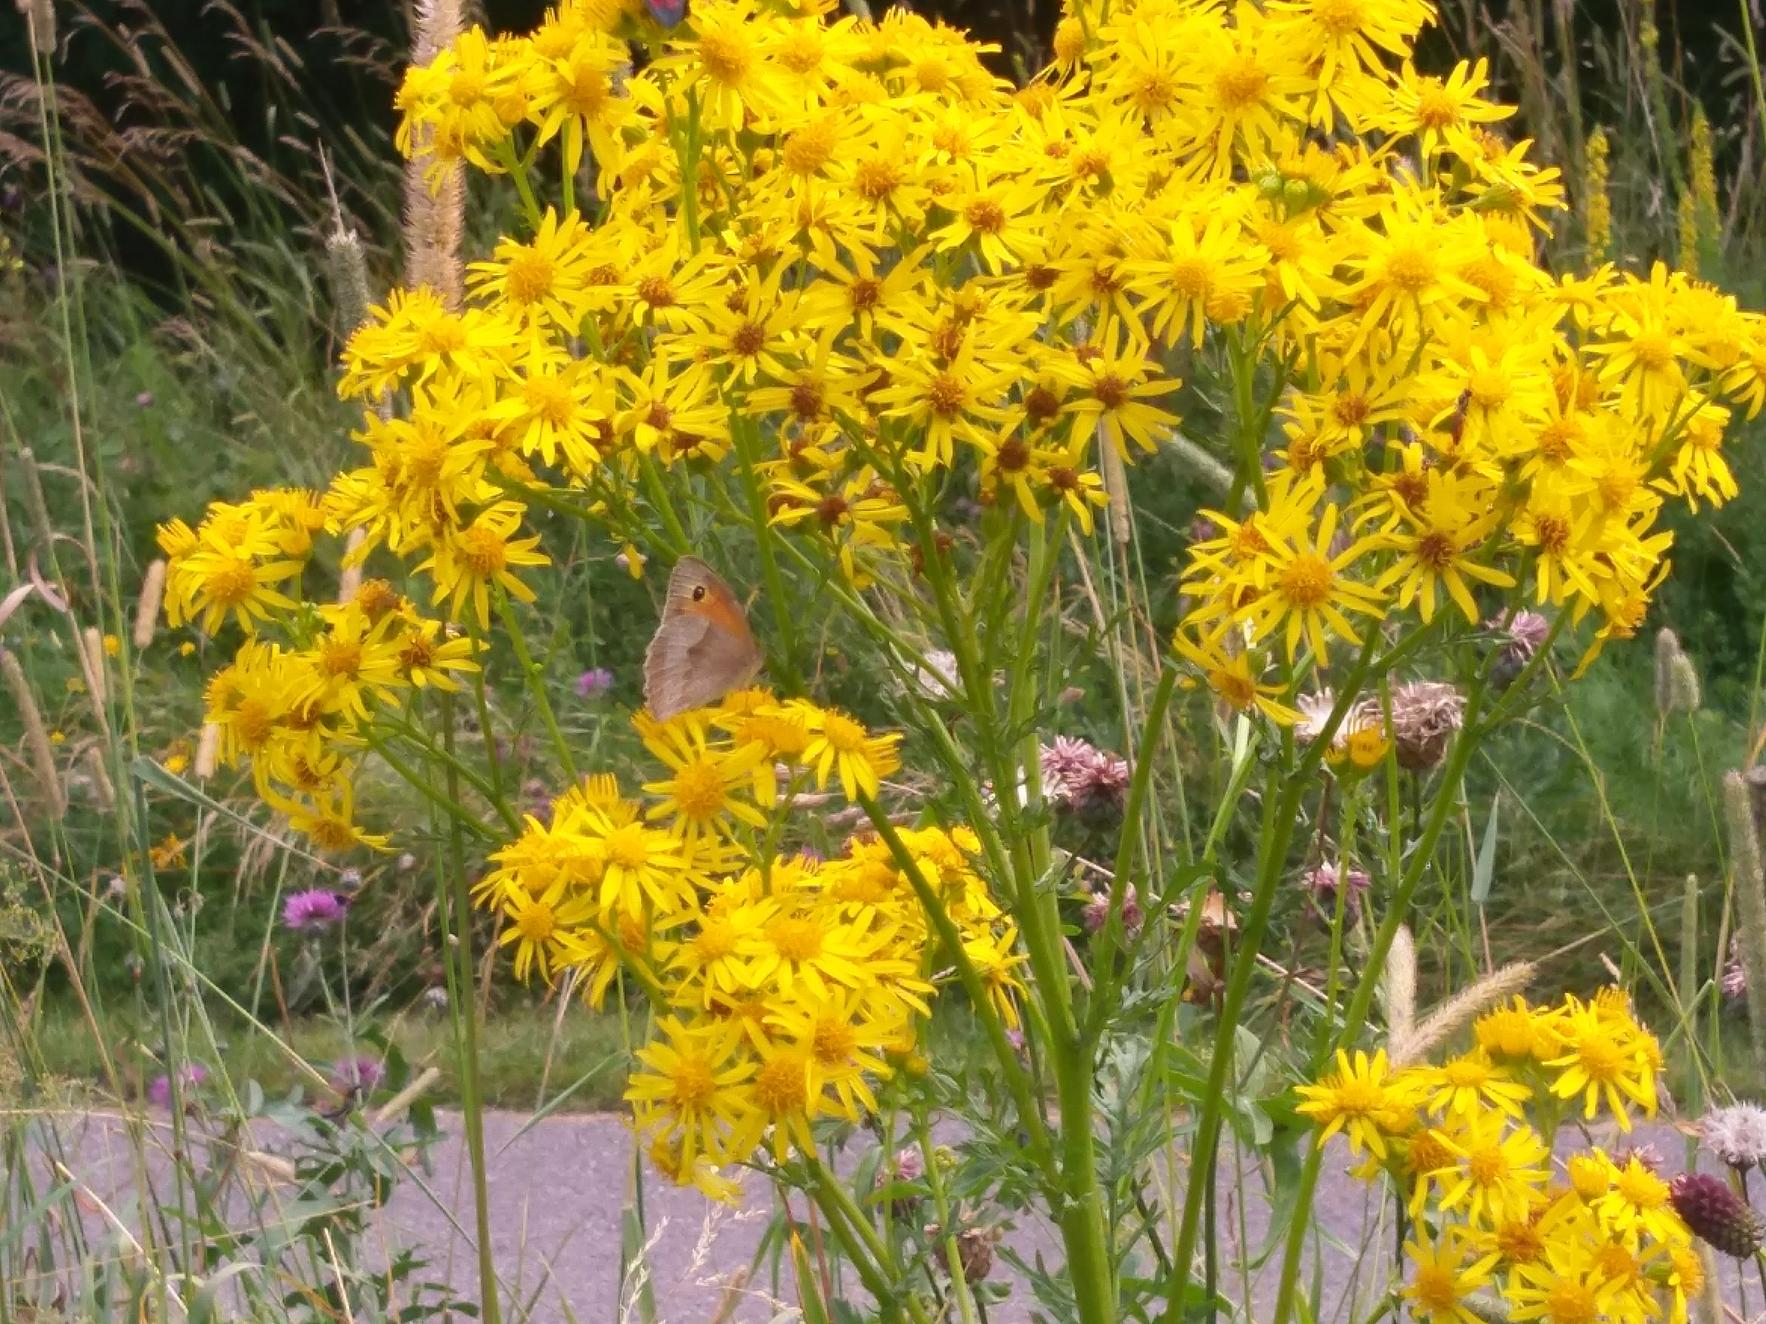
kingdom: Animalia
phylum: Arthropoda
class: Insecta
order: Lepidoptera
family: Nymphalidae
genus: Maniola
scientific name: Maniola jurtina
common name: Græsrandøje
